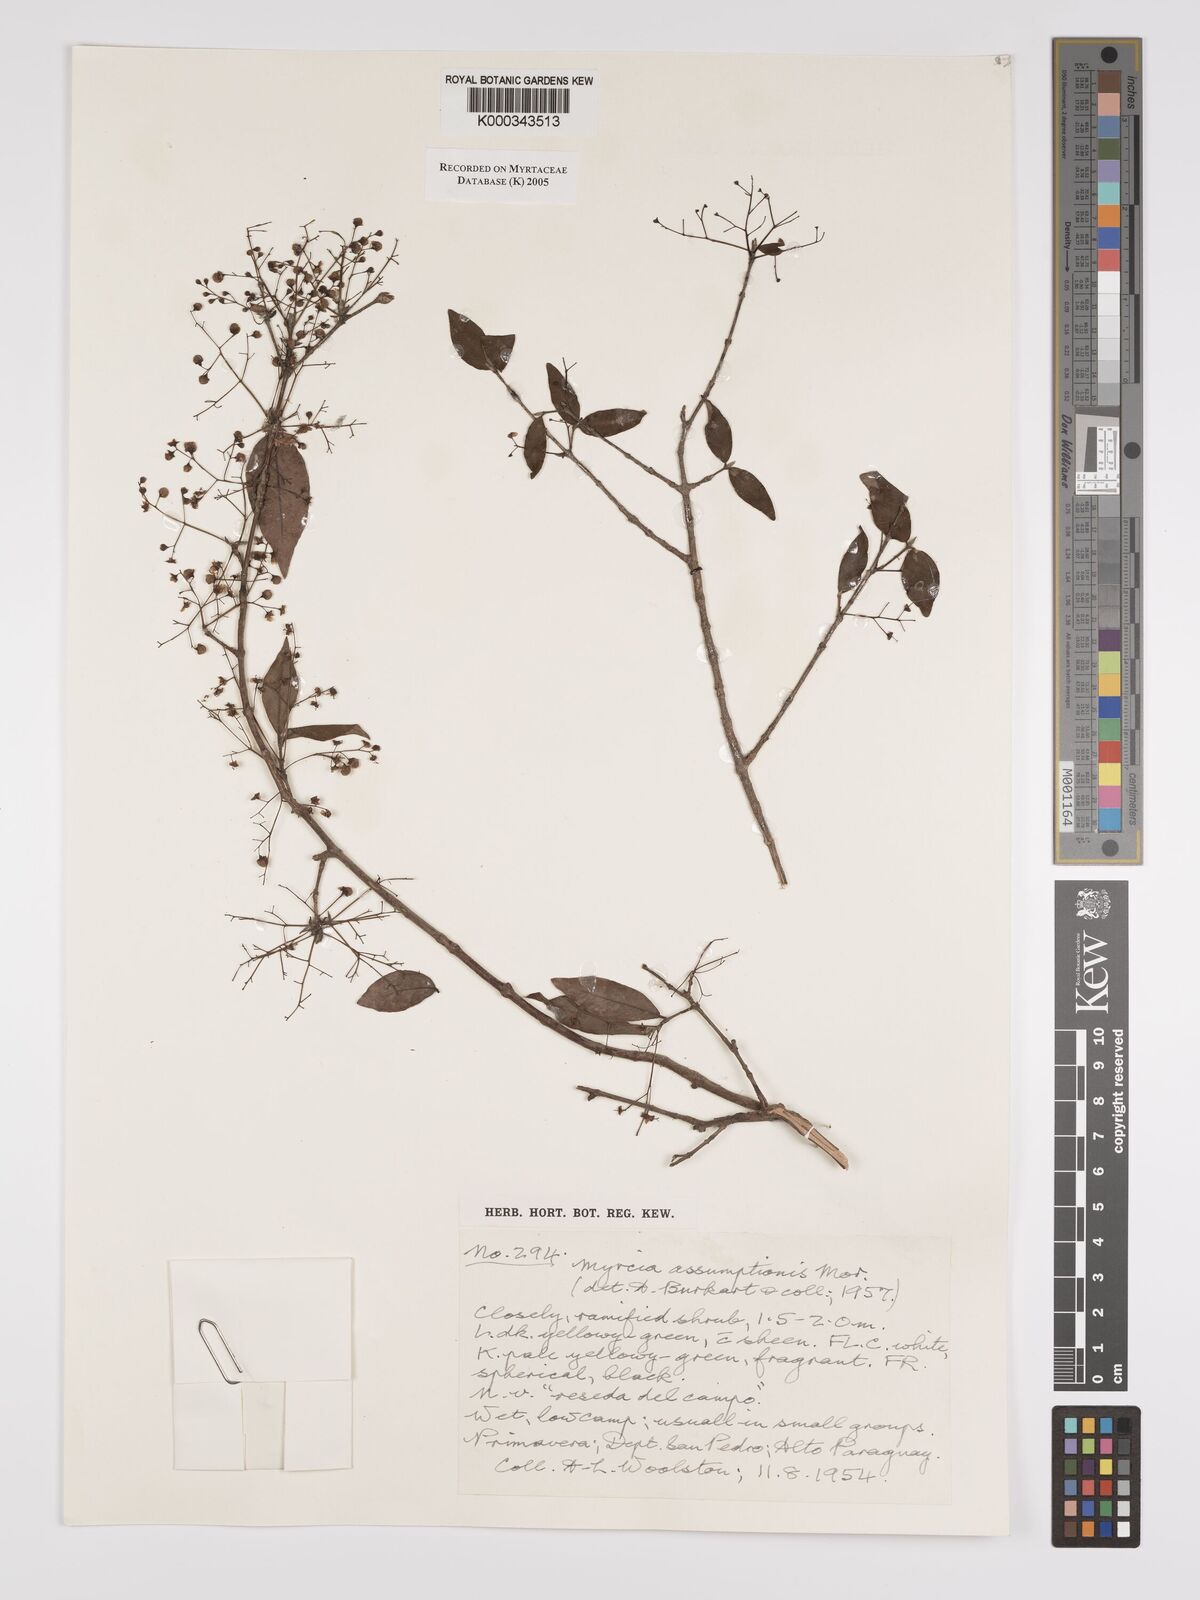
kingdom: Plantae
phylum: Tracheophyta
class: Magnoliopsida
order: Myrtales
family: Myrtaceae
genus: Myrcia
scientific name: Myrcia laruotteana
